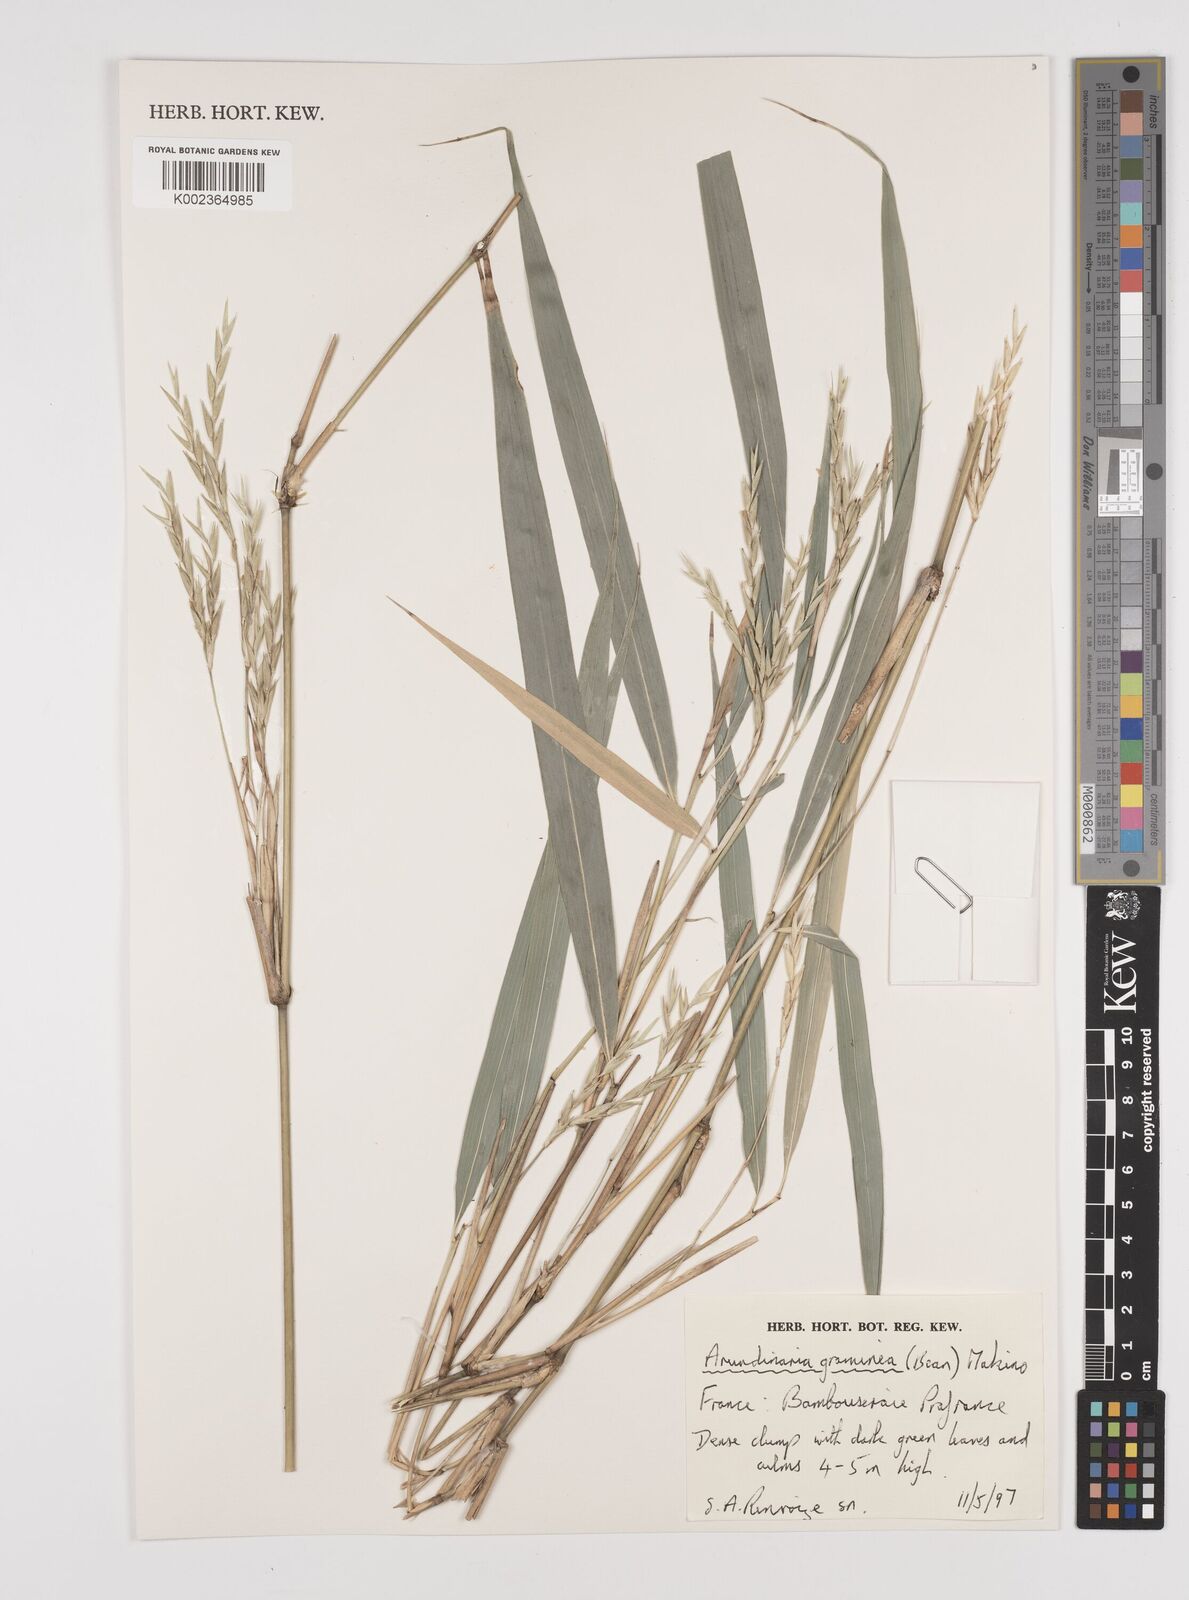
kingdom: Plantae
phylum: Tracheophyta
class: Liliopsida
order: Poales
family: Poaceae
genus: Pleioblastus
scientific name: Pleioblastus gramineus
